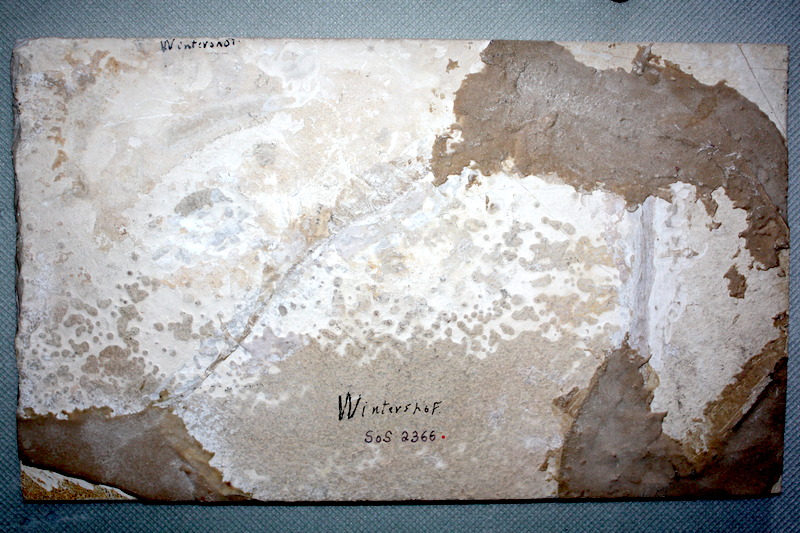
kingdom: Animalia
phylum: Chordata
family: Mesturidae
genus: Mesturus
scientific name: Mesturus verrucosus
